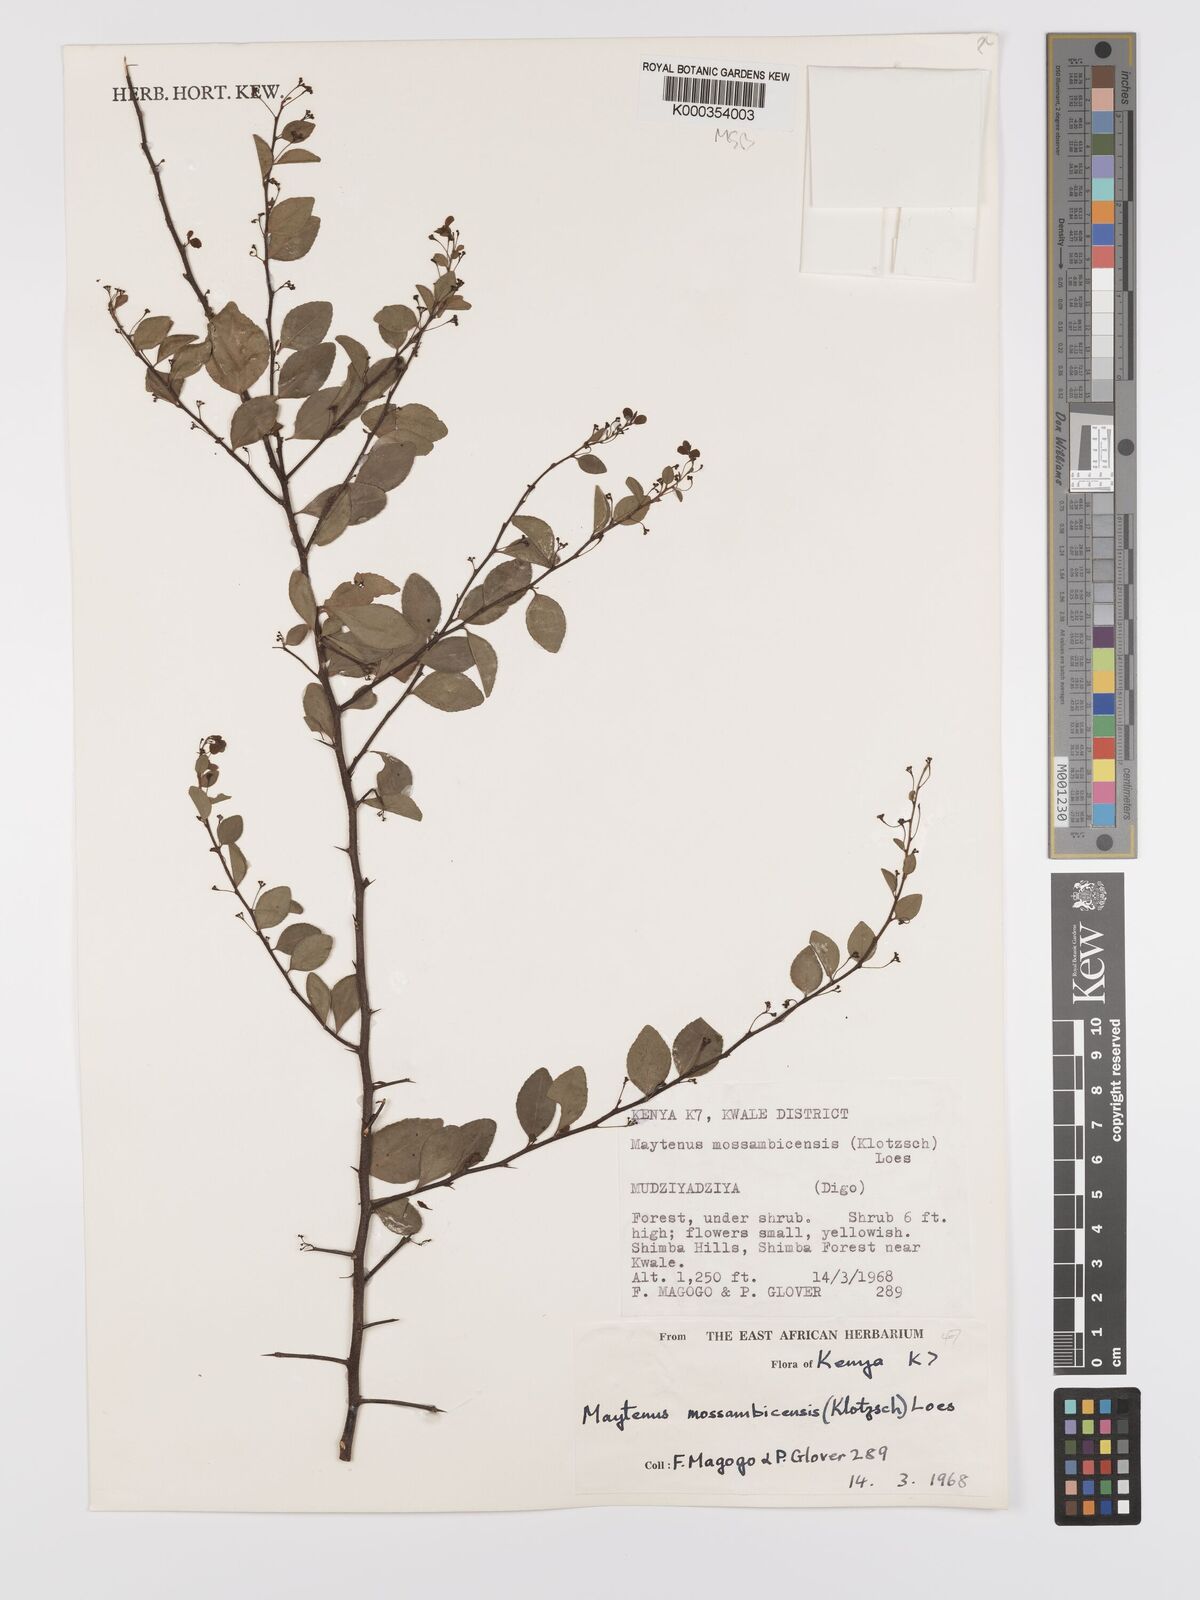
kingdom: Plantae
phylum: Tracheophyta
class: Magnoliopsida
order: Celastrales
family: Celastraceae
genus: Gymnosporia
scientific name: Gymnosporia mossambicensis
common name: Black forest spike-thorn
